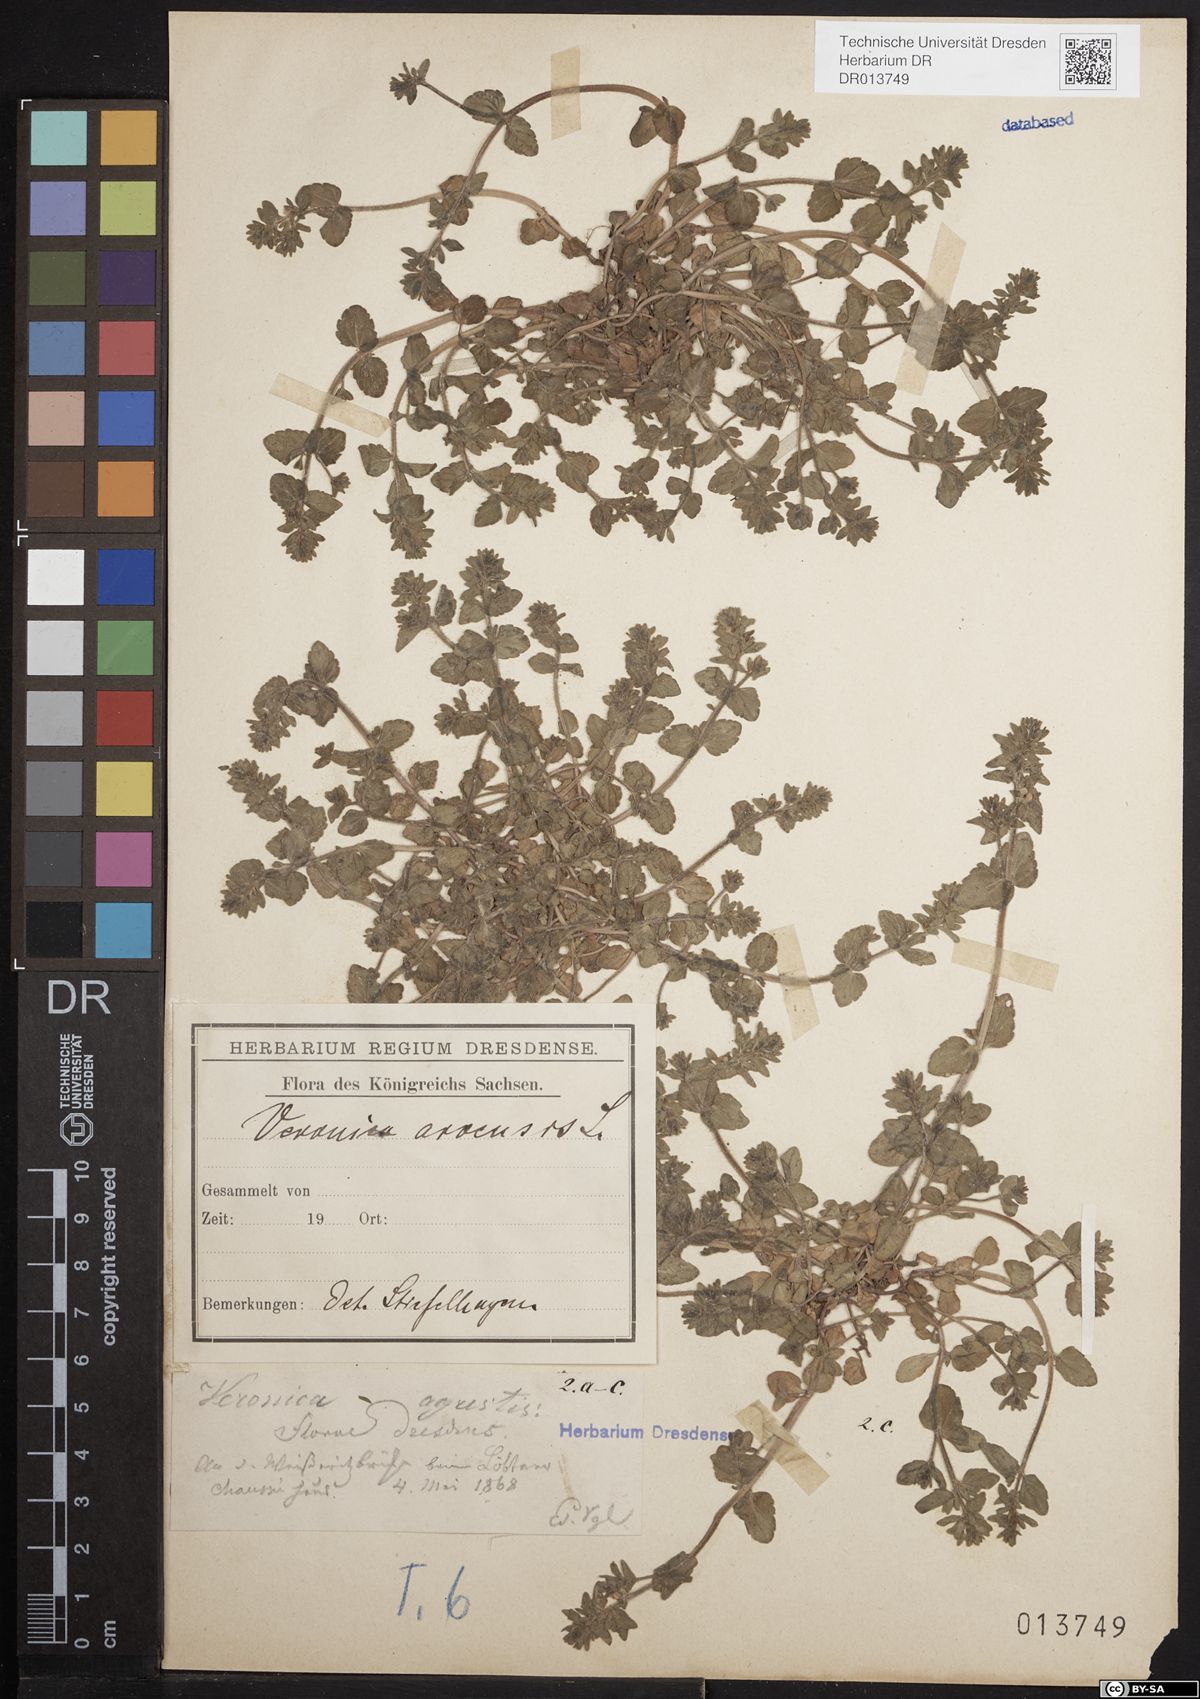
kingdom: Plantae
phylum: Tracheophyta
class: Magnoliopsida
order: Lamiales
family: Plantaginaceae
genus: Veronica
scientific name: Veronica arvensis
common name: Corn speedwell
